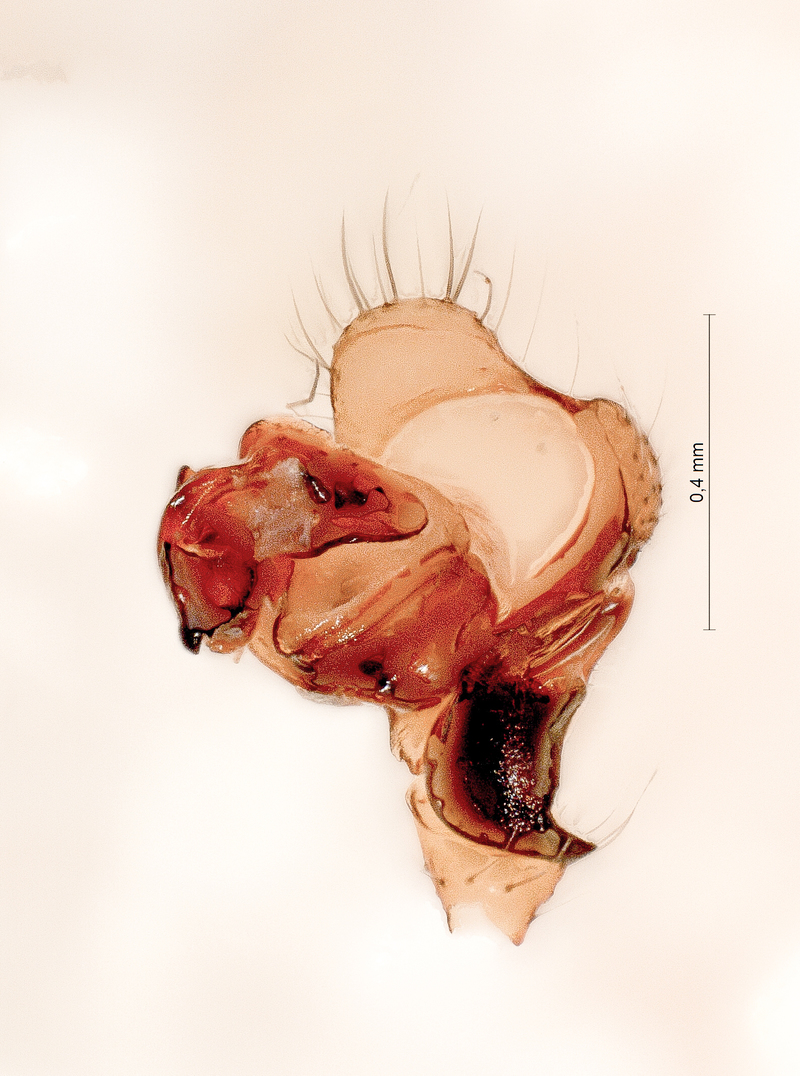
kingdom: Animalia
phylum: Arthropoda
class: Arachnida
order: Araneae
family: Linyphiidae
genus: Saaristoa
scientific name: Saaristoa abnormis
